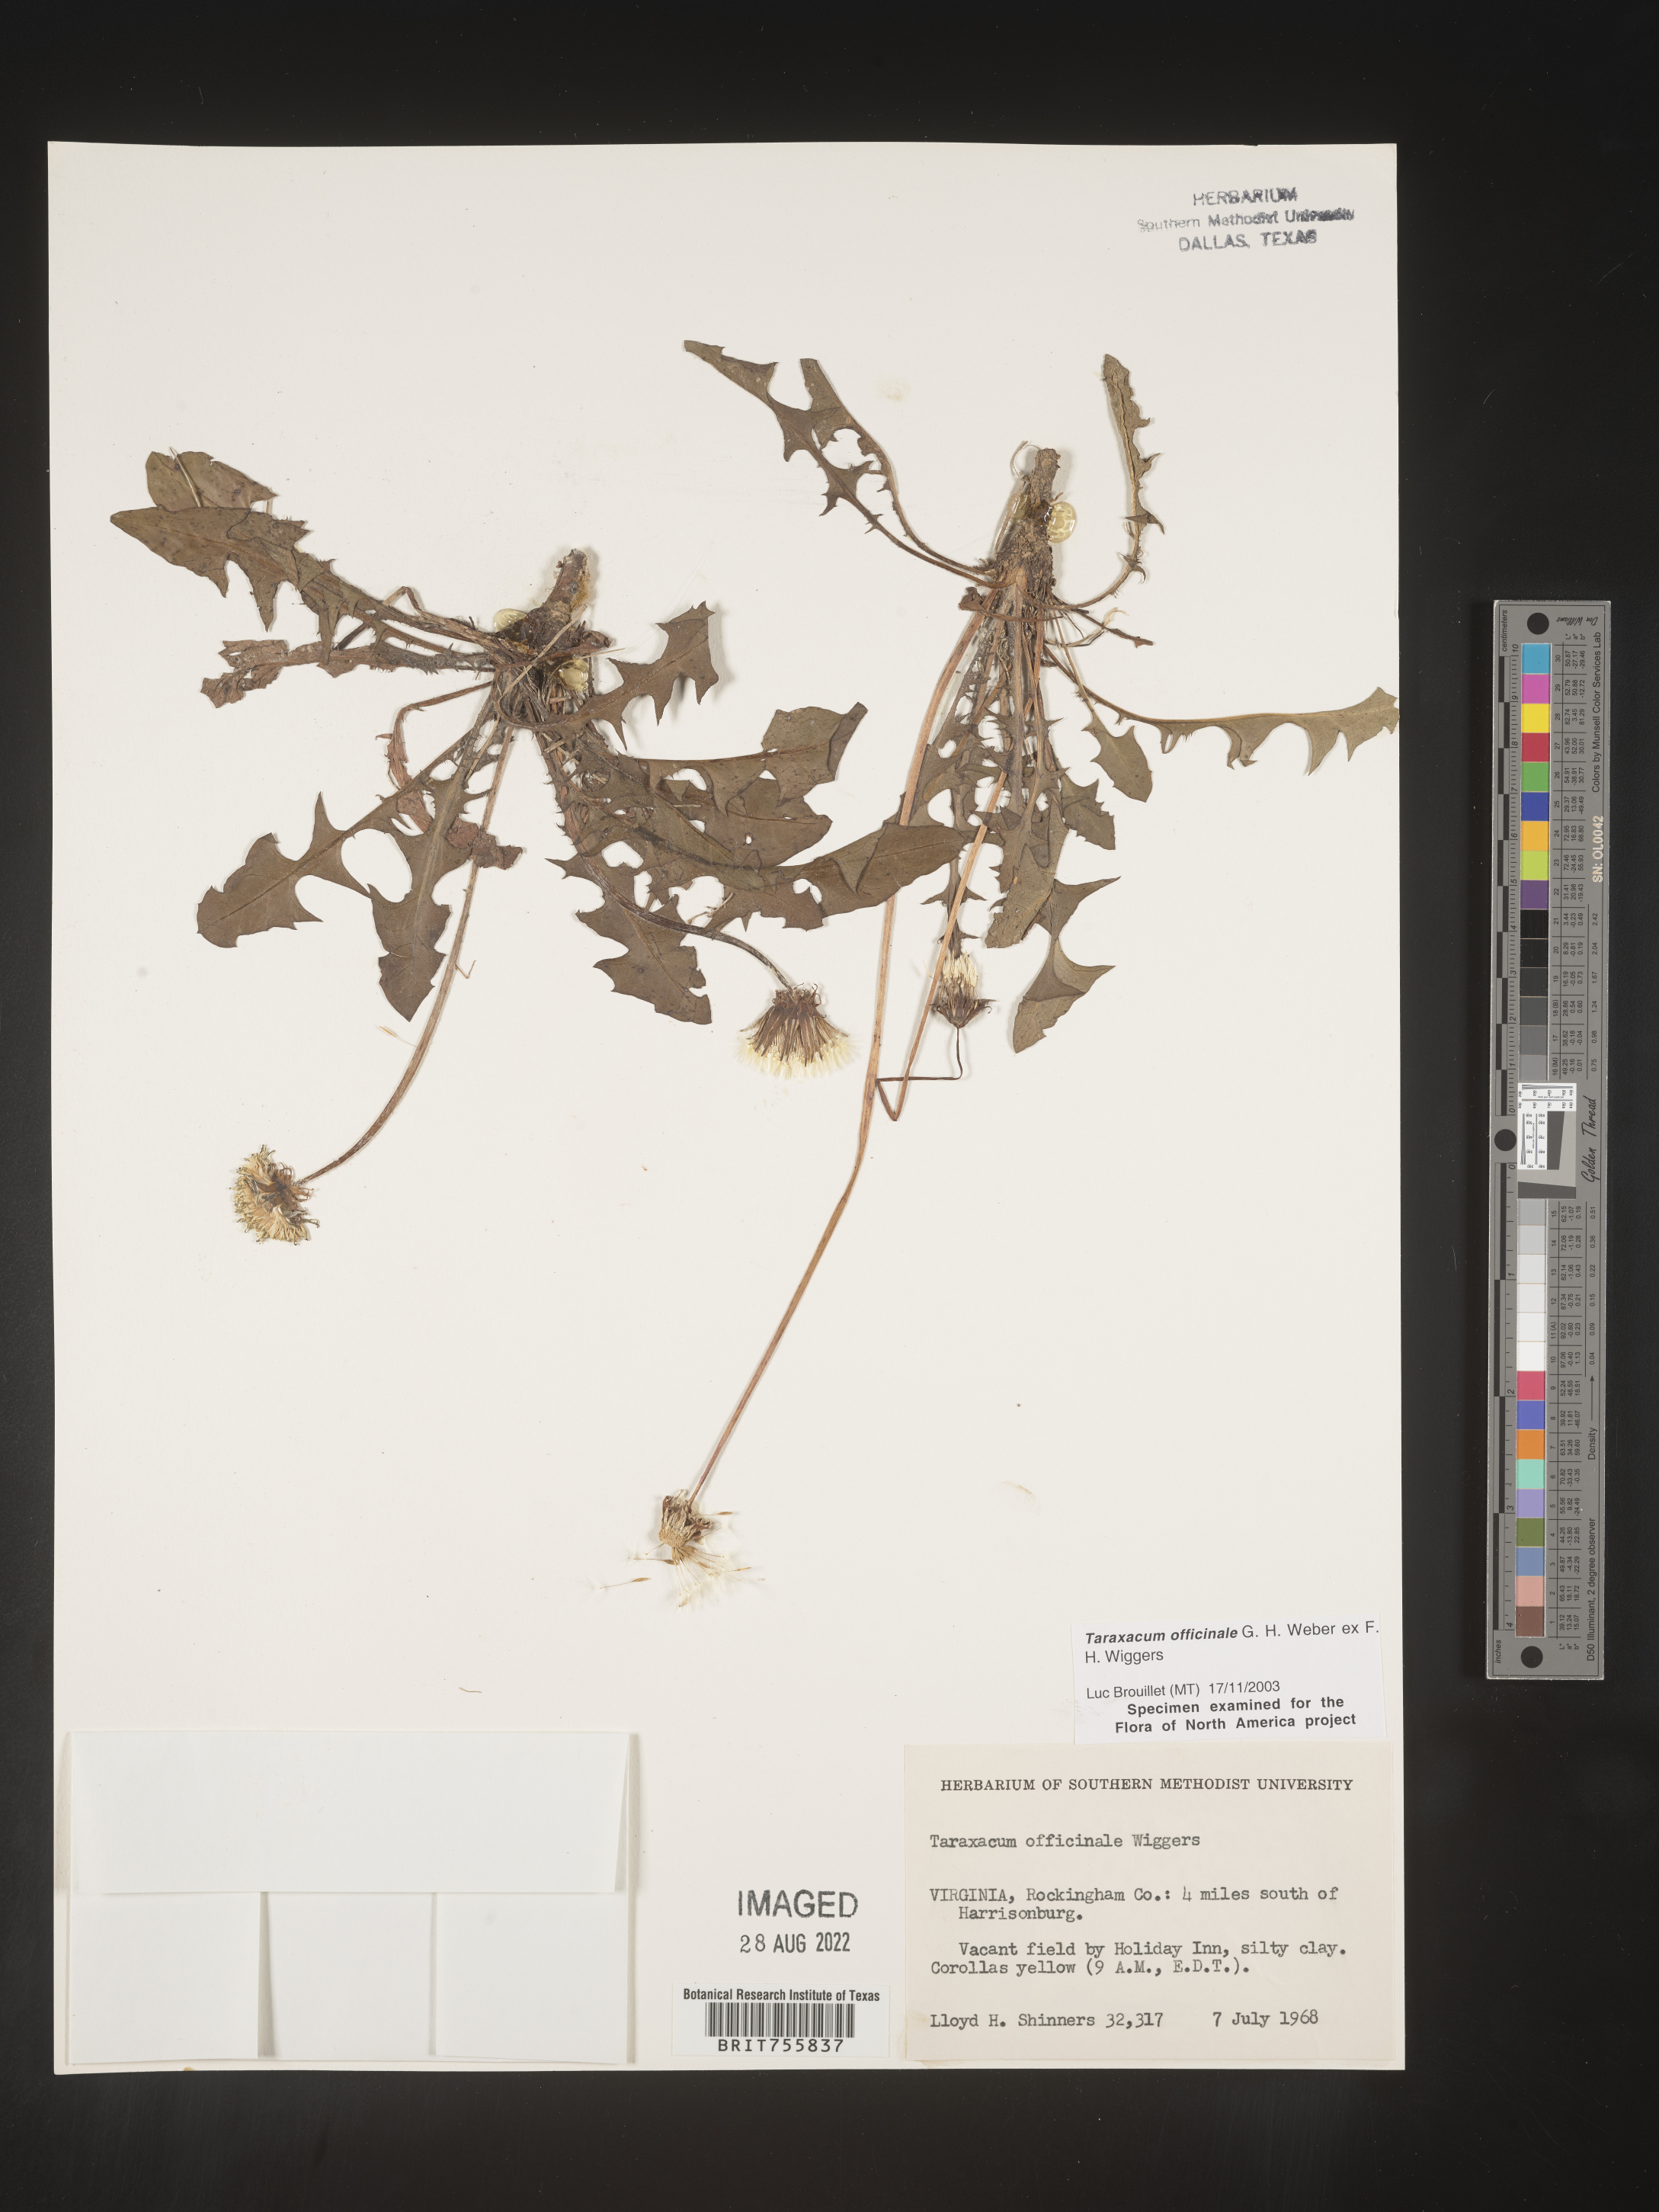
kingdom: Plantae
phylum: Tracheophyta
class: Magnoliopsida
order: Asterales
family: Asteraceae
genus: Taraxacum
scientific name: Taraxacum officinale
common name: Common dandelion
